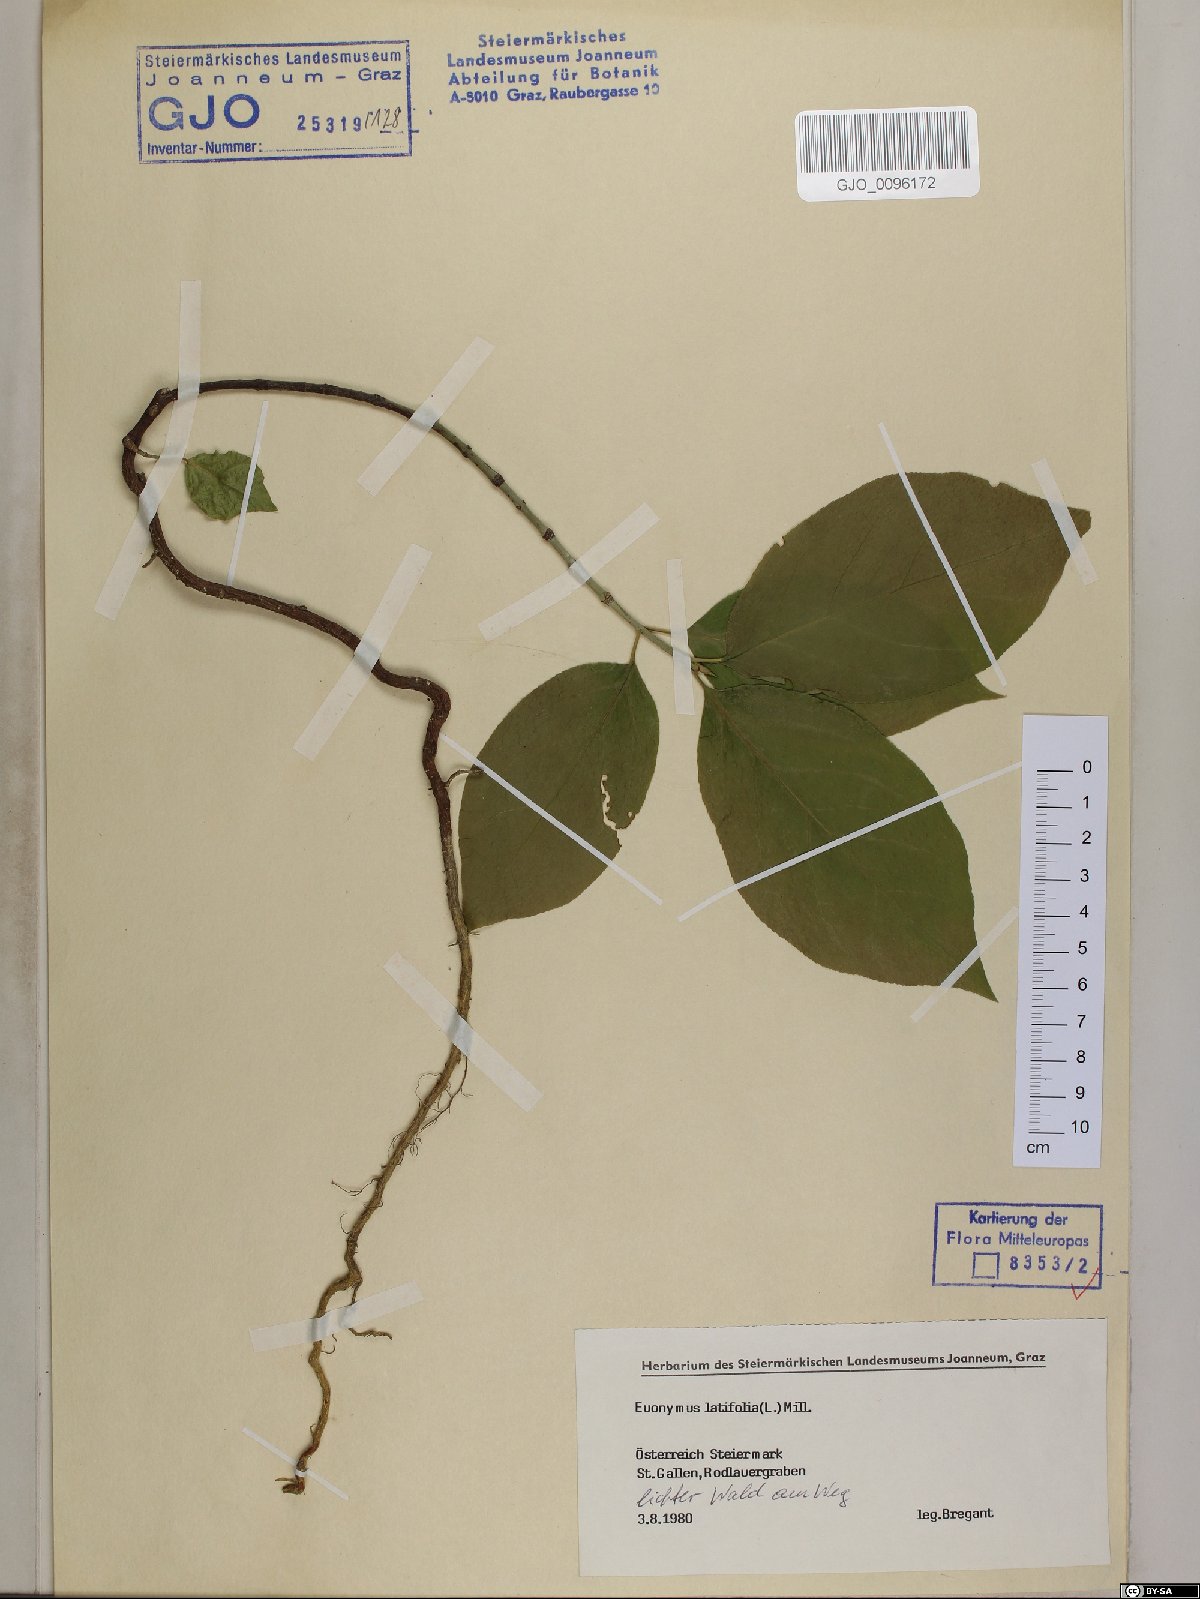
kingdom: Plantae
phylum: Tracheophyta
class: Magnoliopsida
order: Celastrales
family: Celastraceae
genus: Euonymus
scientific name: Euonymus latifolius
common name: Large-leaved spindle
